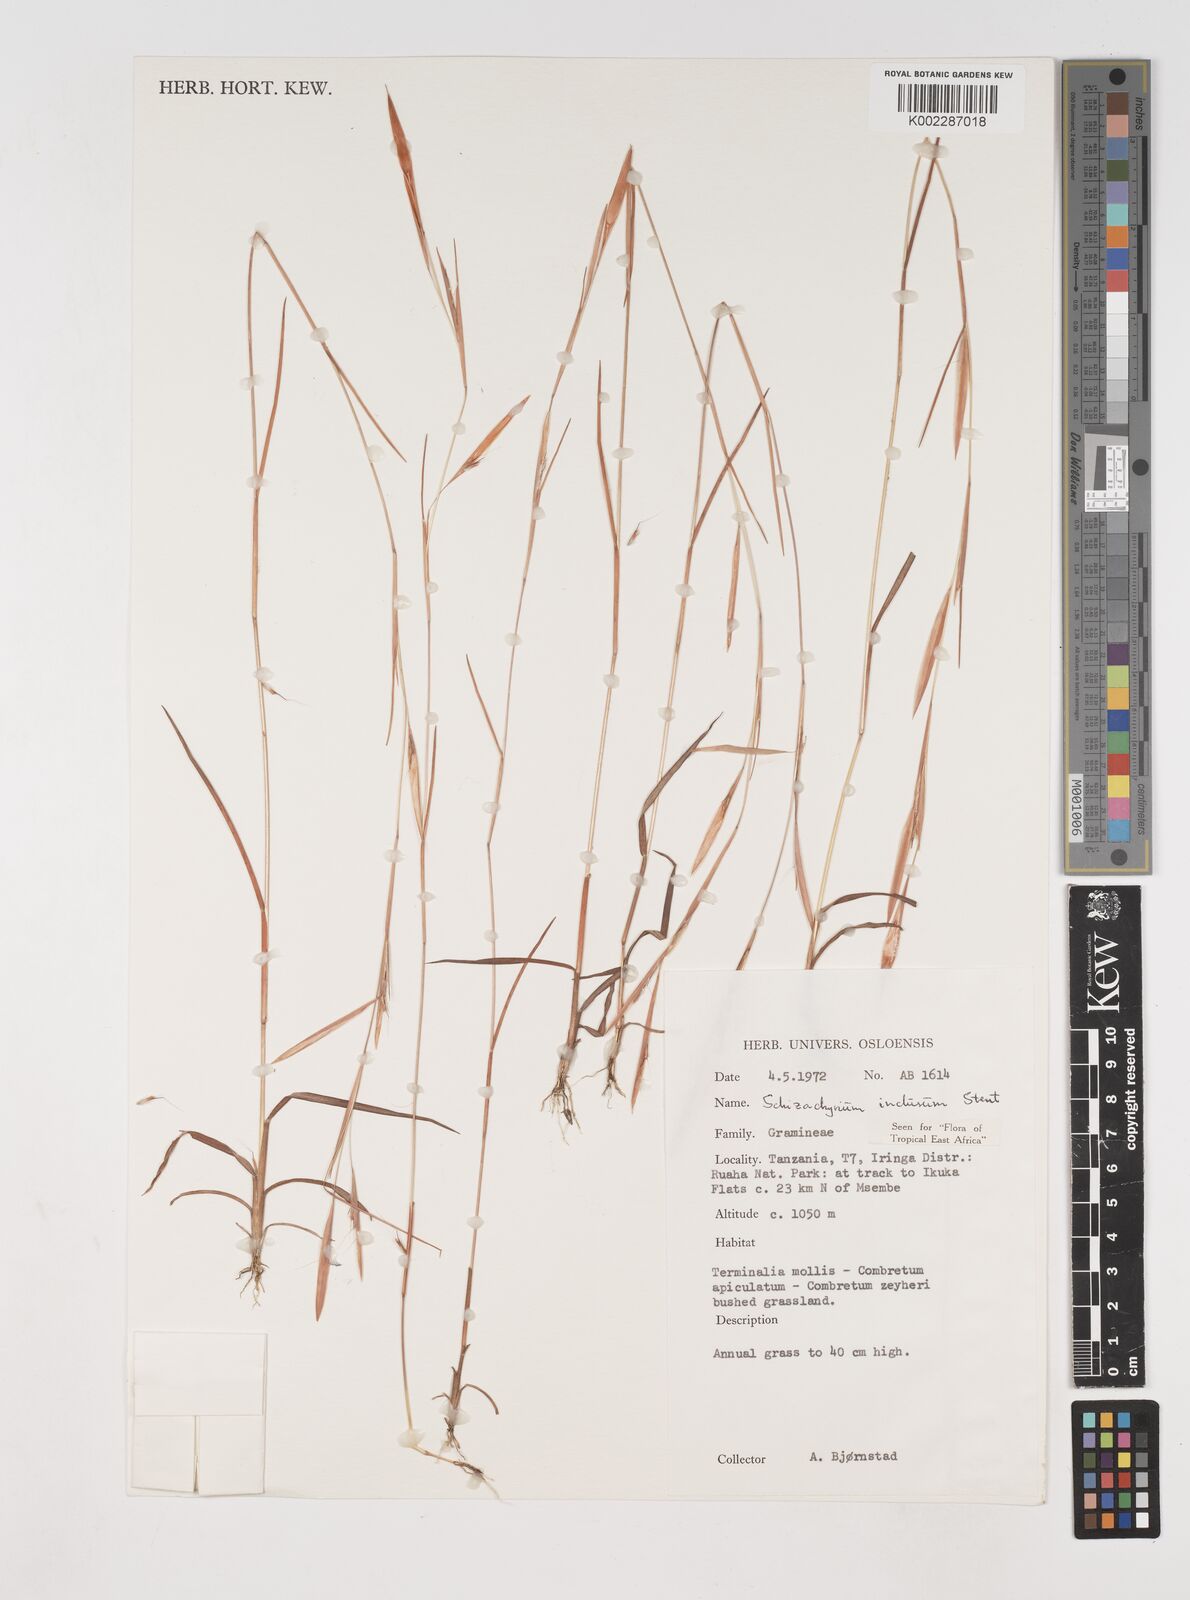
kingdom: Plantae
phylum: Tracheophyta
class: Liliopsida
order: Poales
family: Poaceae
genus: Schizachyrium
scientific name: Schizachyrium exile
